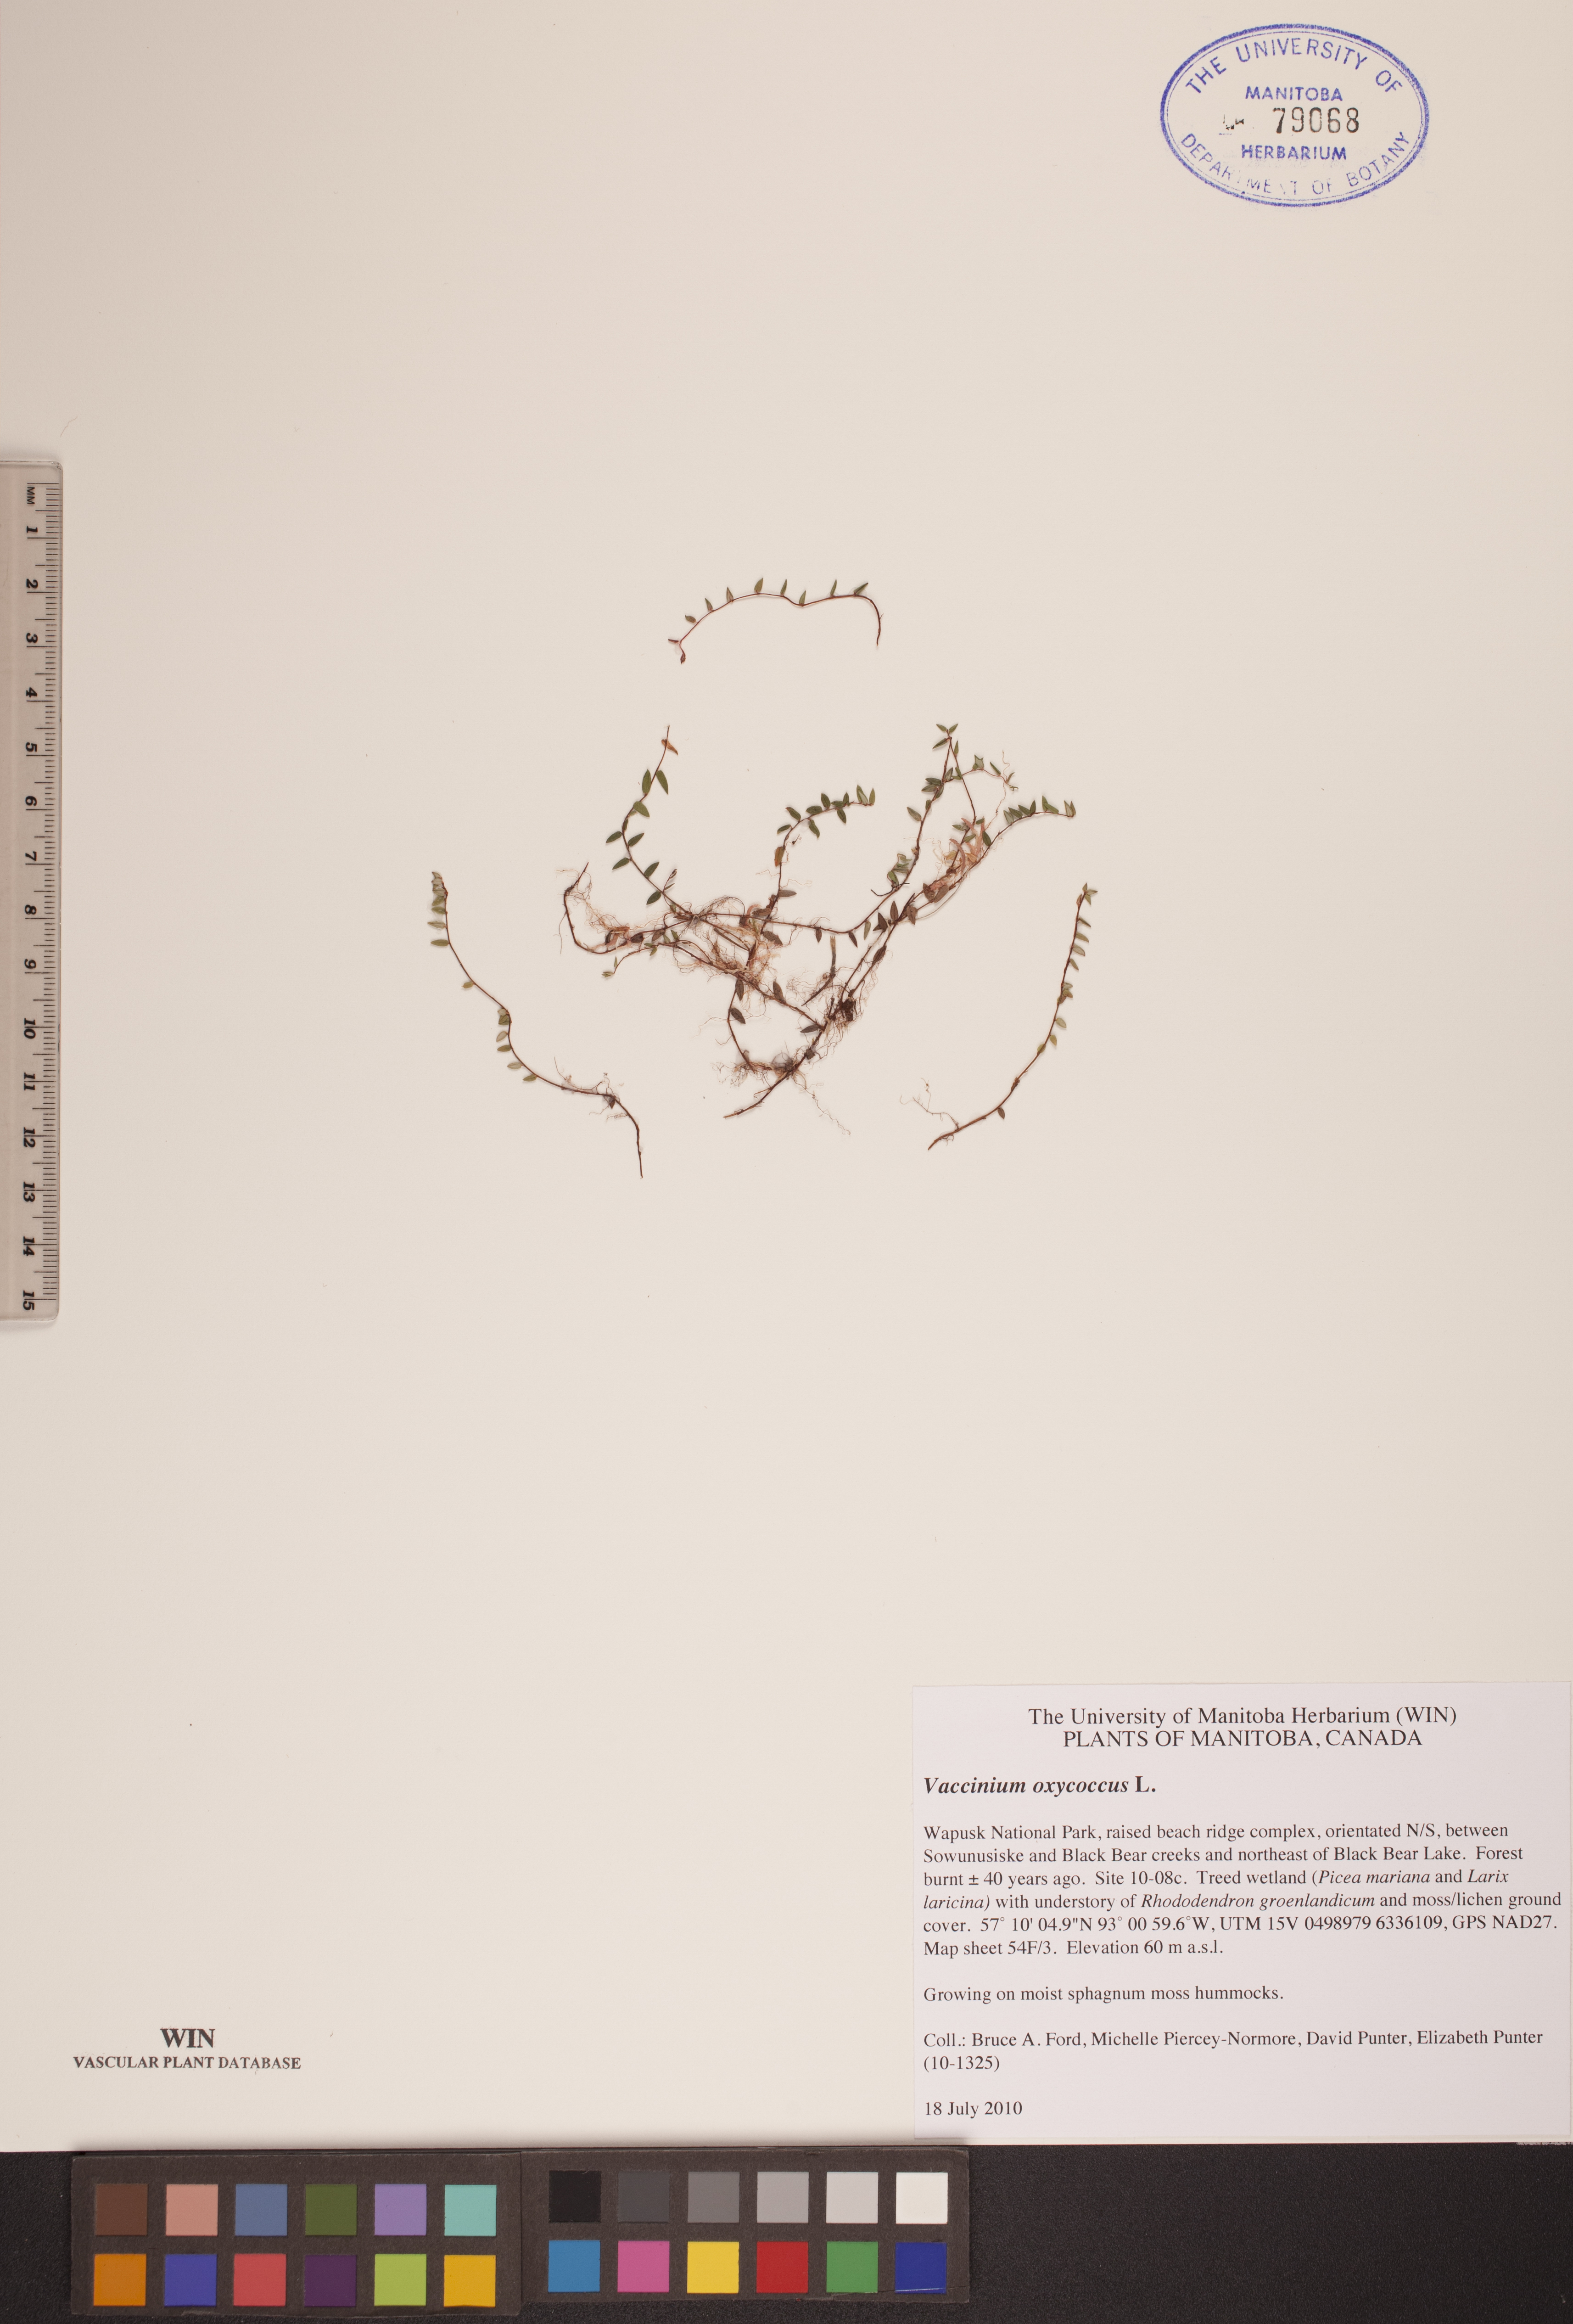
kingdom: Plantae
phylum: Tracheophyta
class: Magnoliopsida
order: Ericales
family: Ericaceae
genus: Vaccinium
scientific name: Vaccinium oxycoccos
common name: Cranberry
